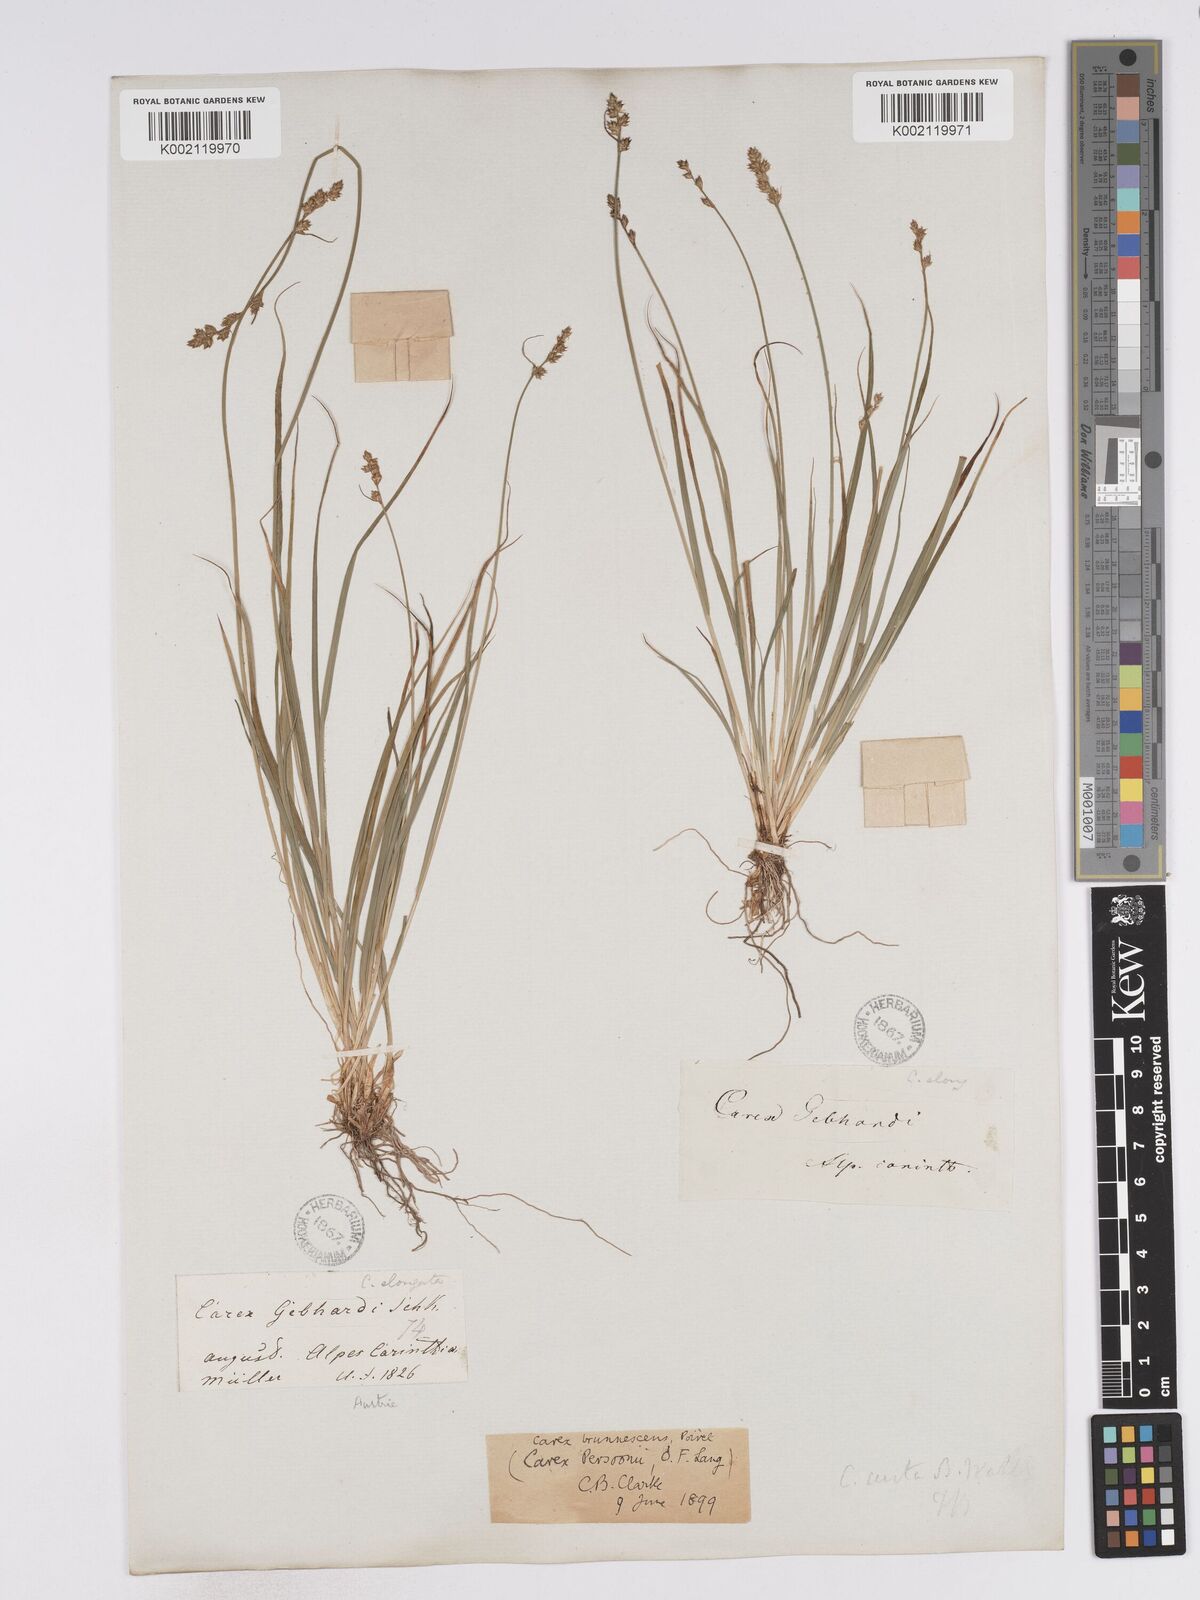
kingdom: Plantae
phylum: Tracheophyta
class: Liliopsida
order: Poales
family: Cyperaceae
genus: Carex
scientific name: Carex canescens
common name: White sedge
